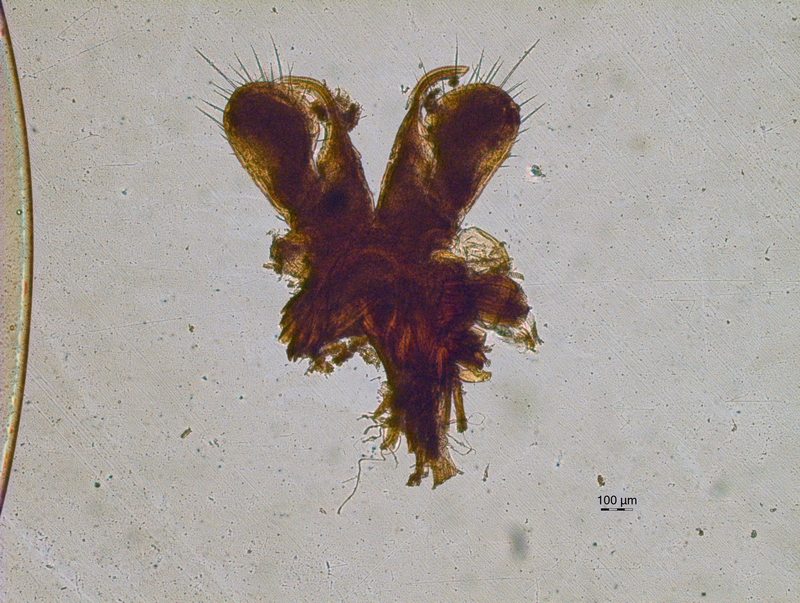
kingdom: Animalia
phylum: Arthropoda
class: Diplopoda
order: Chordeumatida
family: Chordeumatidae
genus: Mycogona
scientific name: Mycogona germanica
